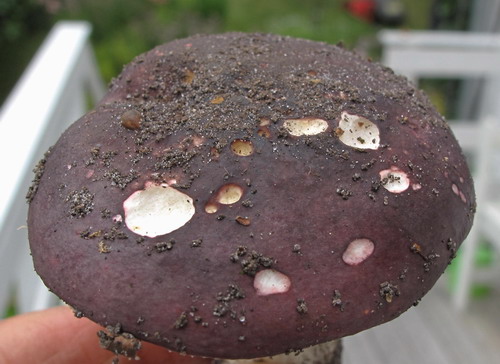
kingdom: Fungi
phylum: Basidiomycota
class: Agaricomycetes
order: Russulales
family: Russulaceae
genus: Russula
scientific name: Russula brunneoviolacea
